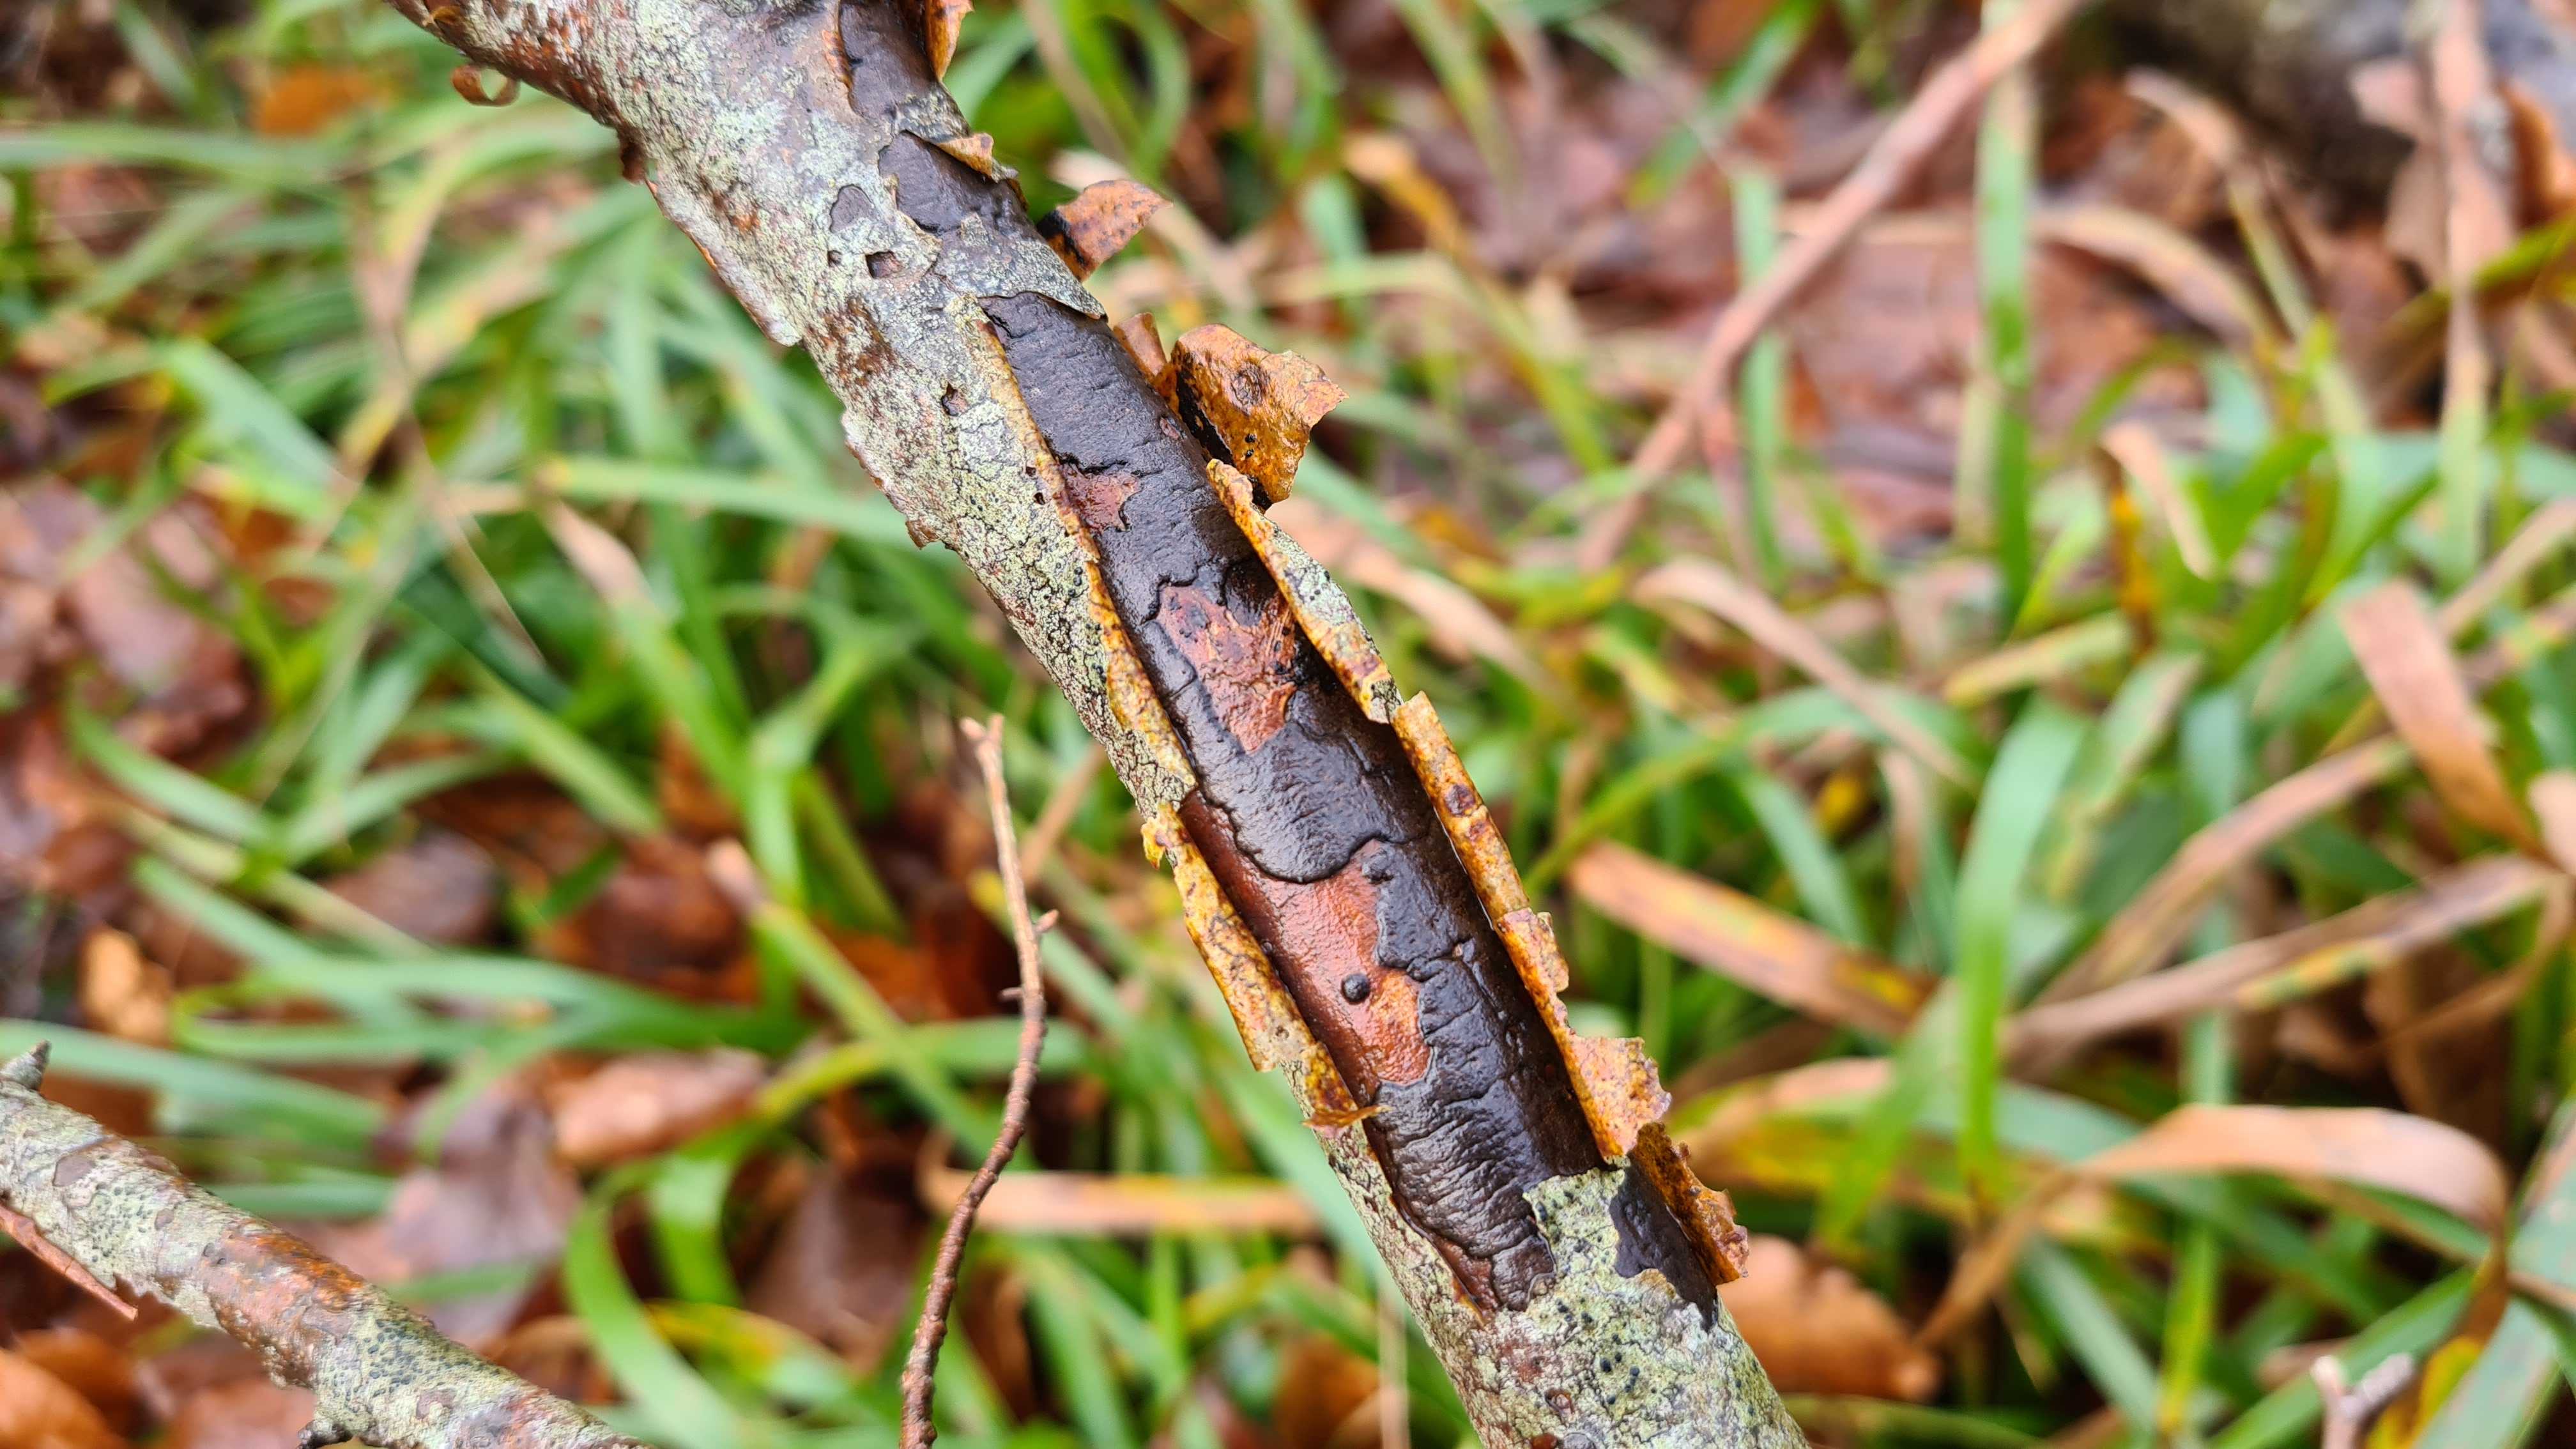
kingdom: Fungi
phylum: Ascomycota
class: Sordariomycetes
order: Xylariales
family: Diatrypaceae
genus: Diatrype
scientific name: Diatrype decorticata
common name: barksprænger-kulskorpe
